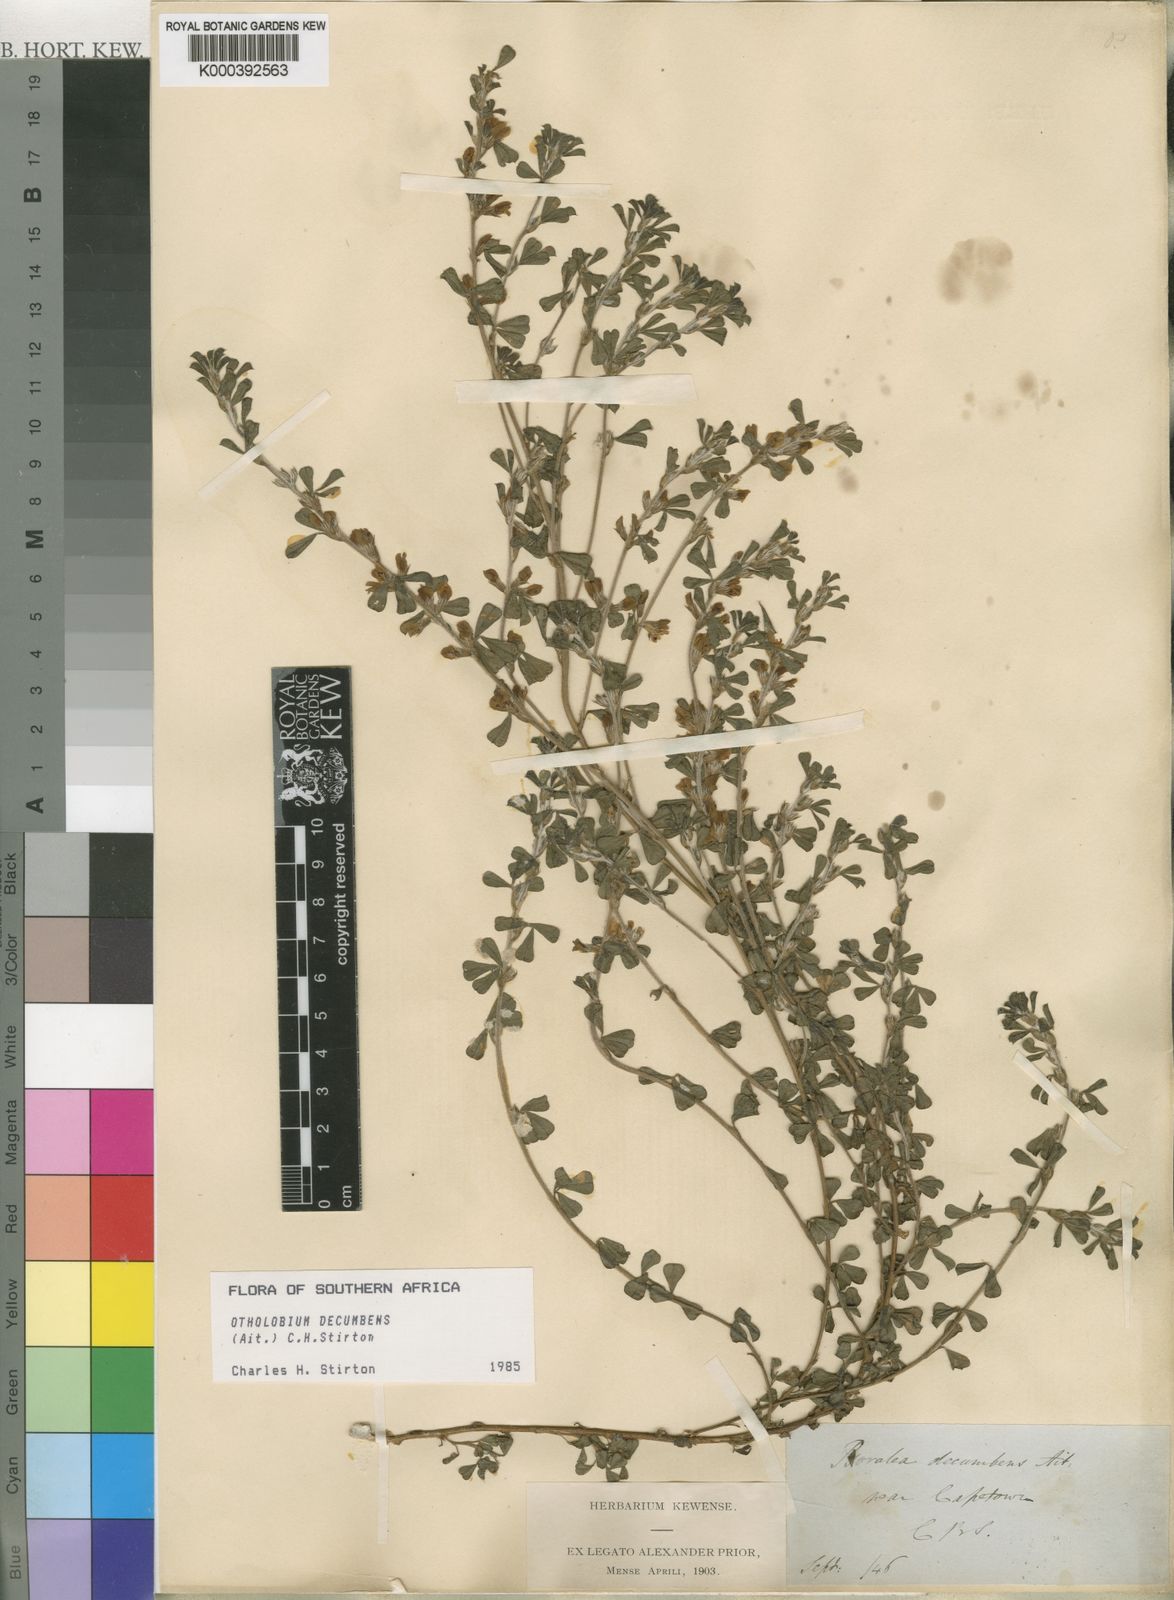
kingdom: Plantae
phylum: Tracheophyta
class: Magnoliopsida
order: Fabales
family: Fabaceae
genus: Psoralea
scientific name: Psoralea Otholobium decumbens
